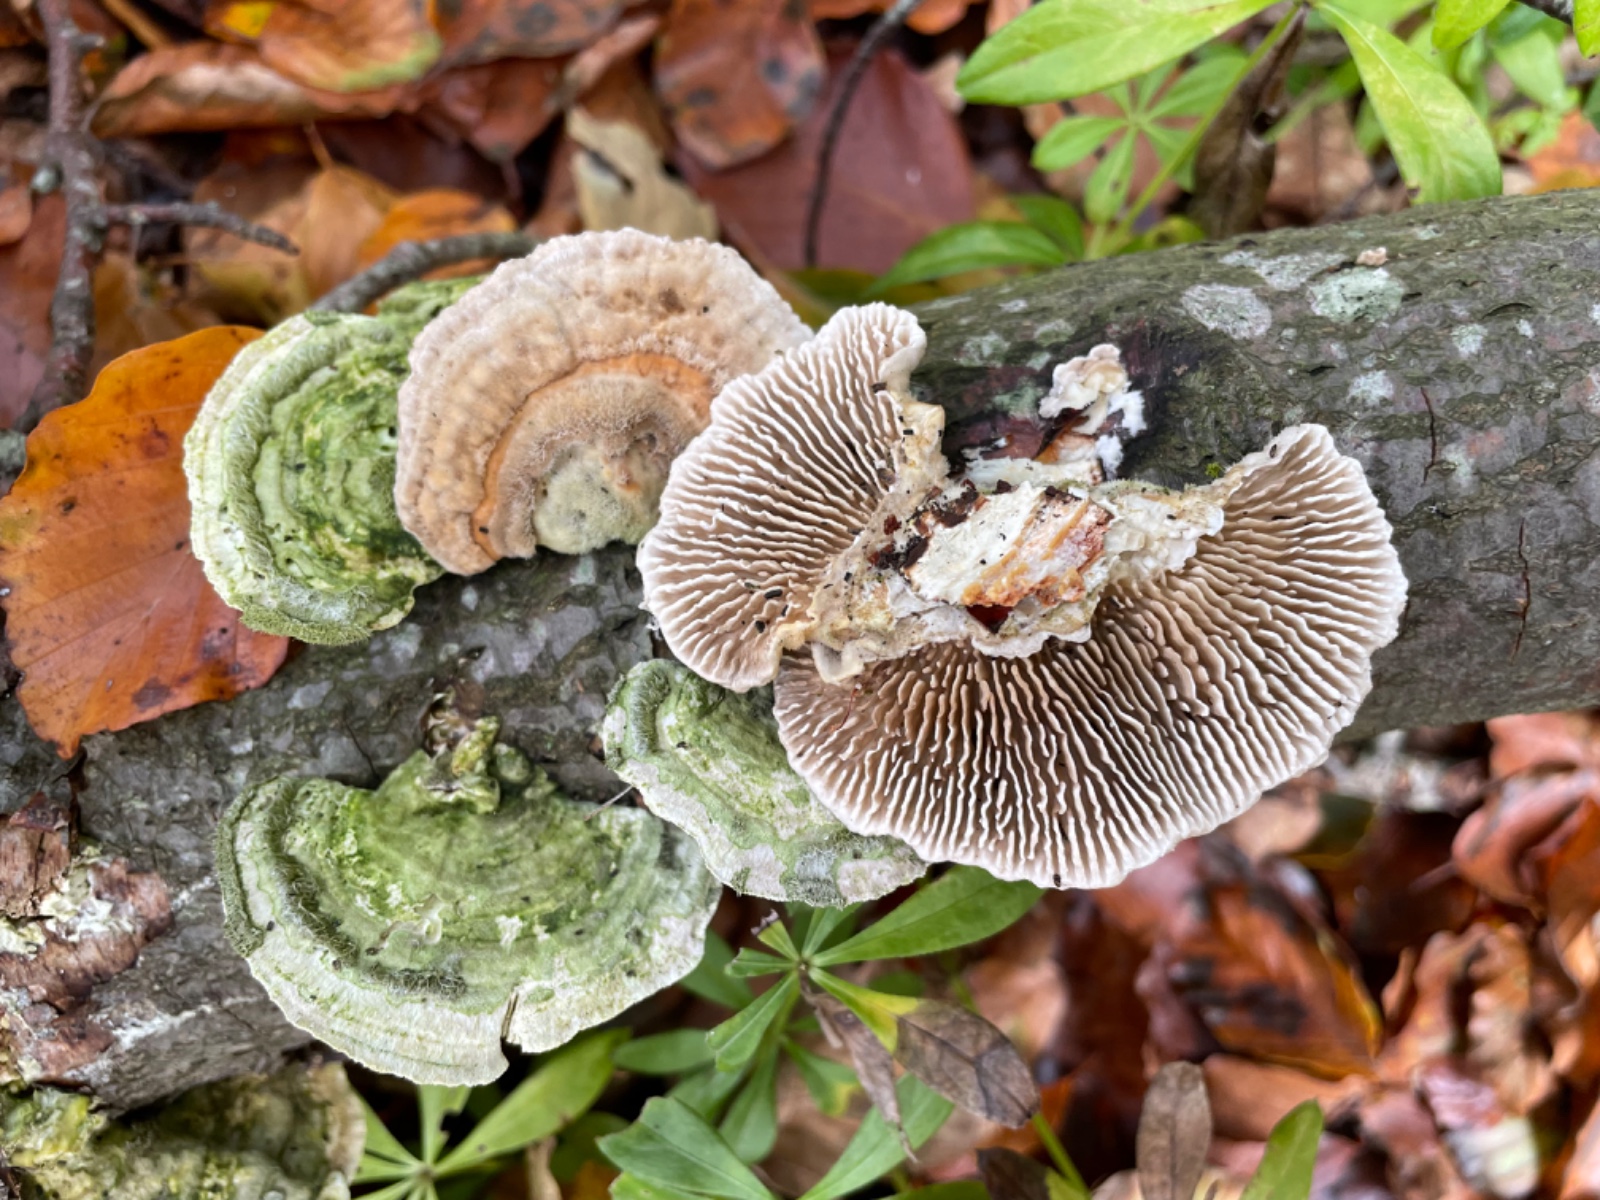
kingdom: Fungi
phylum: Basidiomycota
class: Agaricomycetes
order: Polyporales
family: Polyporaceae
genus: Lenzites
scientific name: Lenzites betulinus
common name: birke-læderporesvamp
